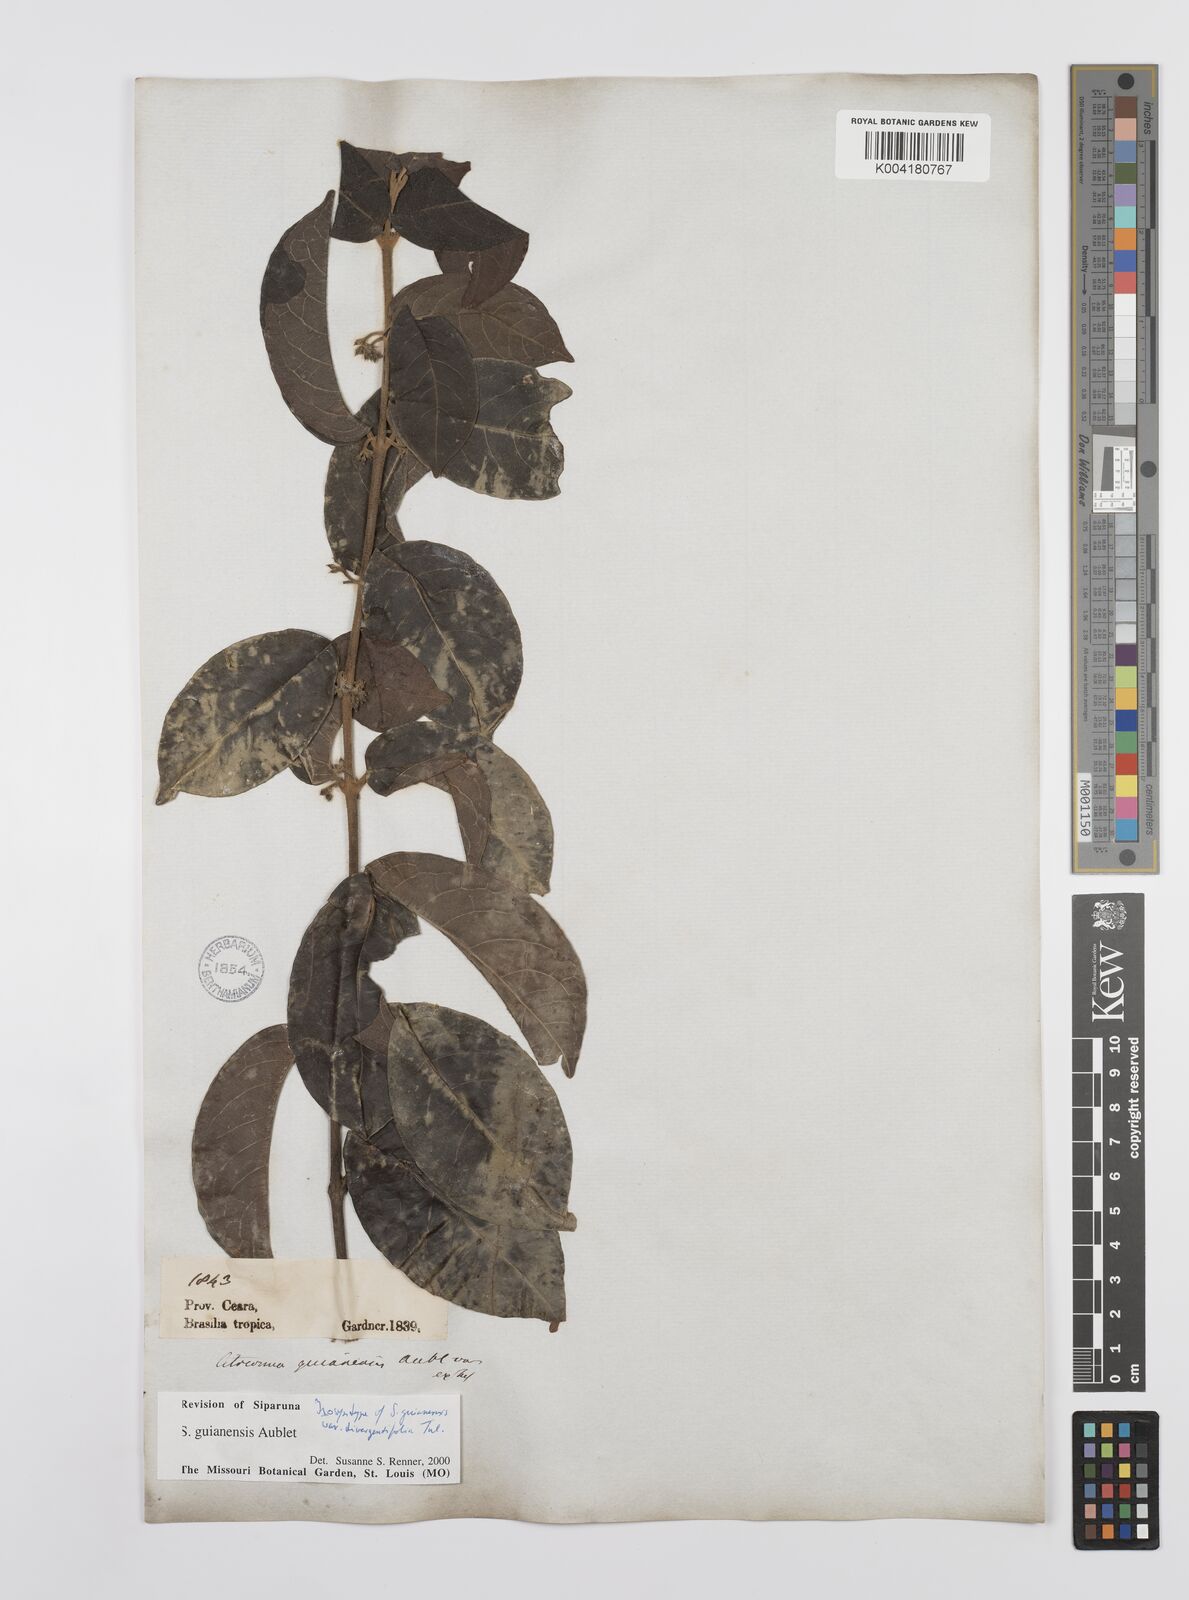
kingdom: Plantae
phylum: Tracheophyta
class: Magnoliopsida
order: Laurales
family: Siparunaceae
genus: Siparuna
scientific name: Siparuna guianensis
